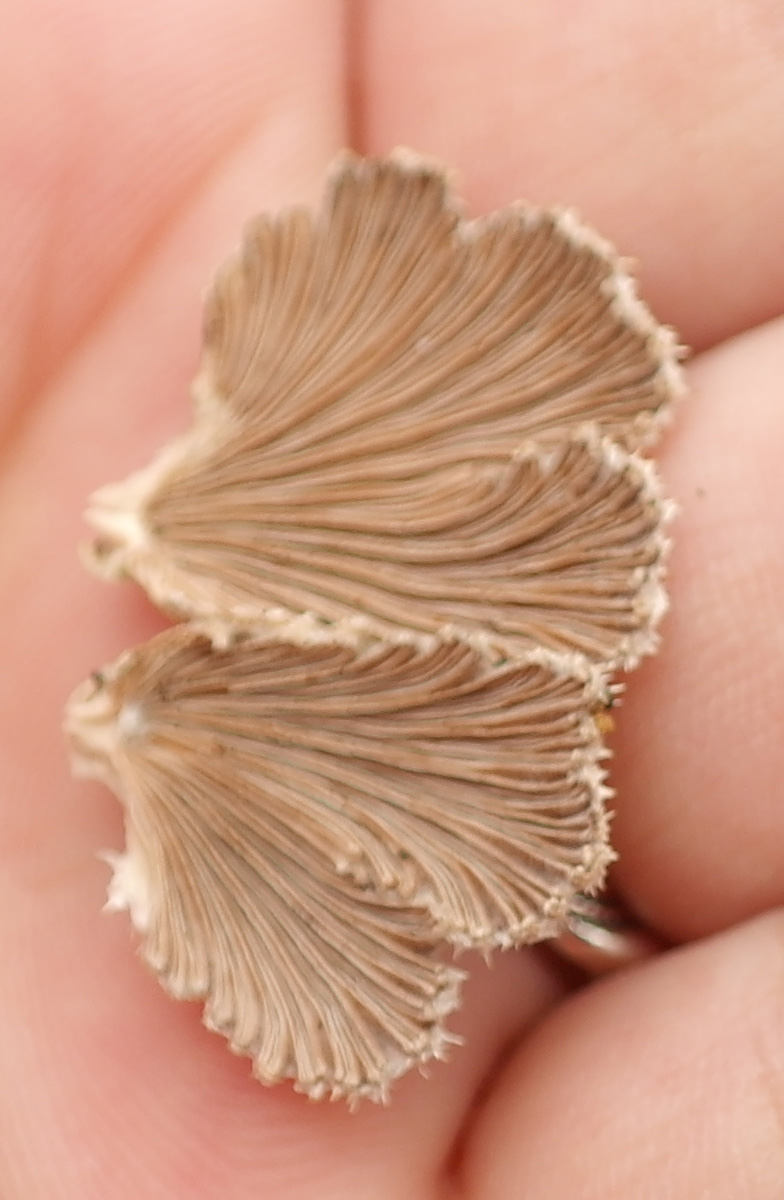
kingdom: Fungi
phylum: Basidiomycota
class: Agaricomycetes
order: Agaricales
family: Schizophyllaceae
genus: Schizophyllum
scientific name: Schizophyllum commune
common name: kløvblad
